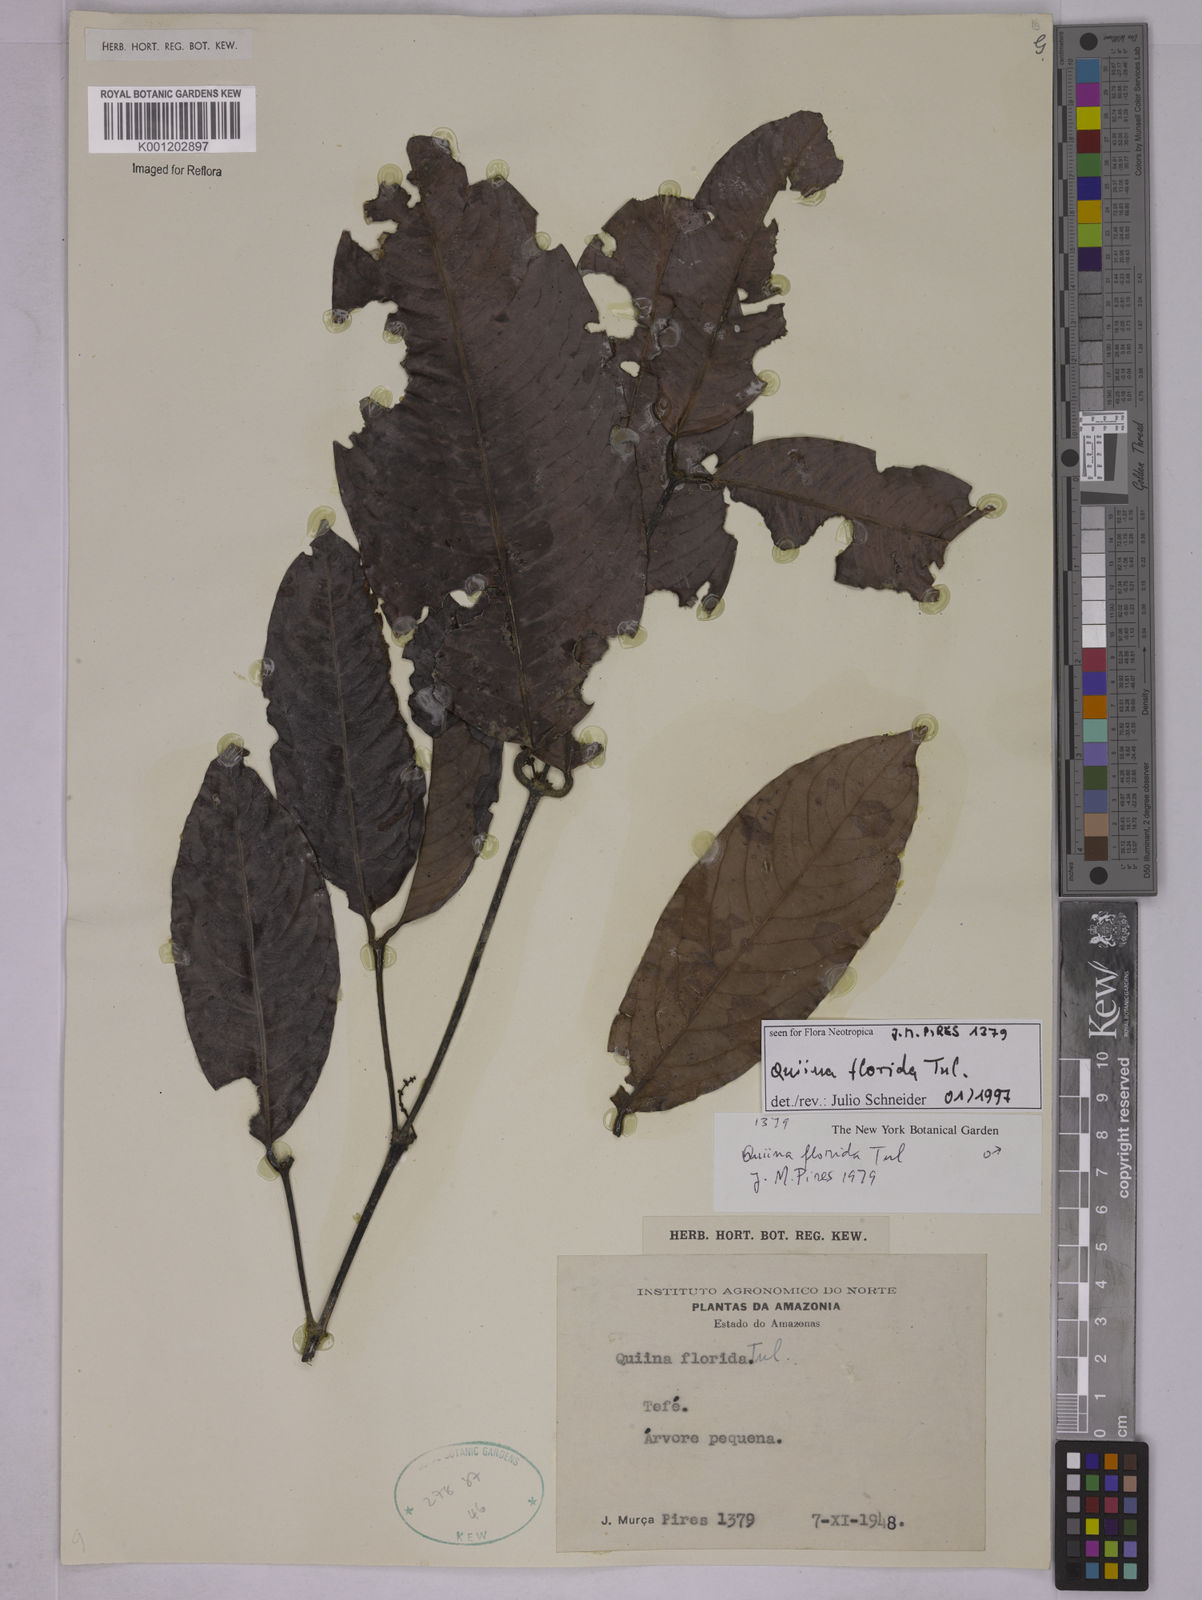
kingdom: Plantae
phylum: Tracheophyta
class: Magnoliopsida
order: Malpighiales
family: Quiinaceae
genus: Quiina
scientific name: Quiina florida
